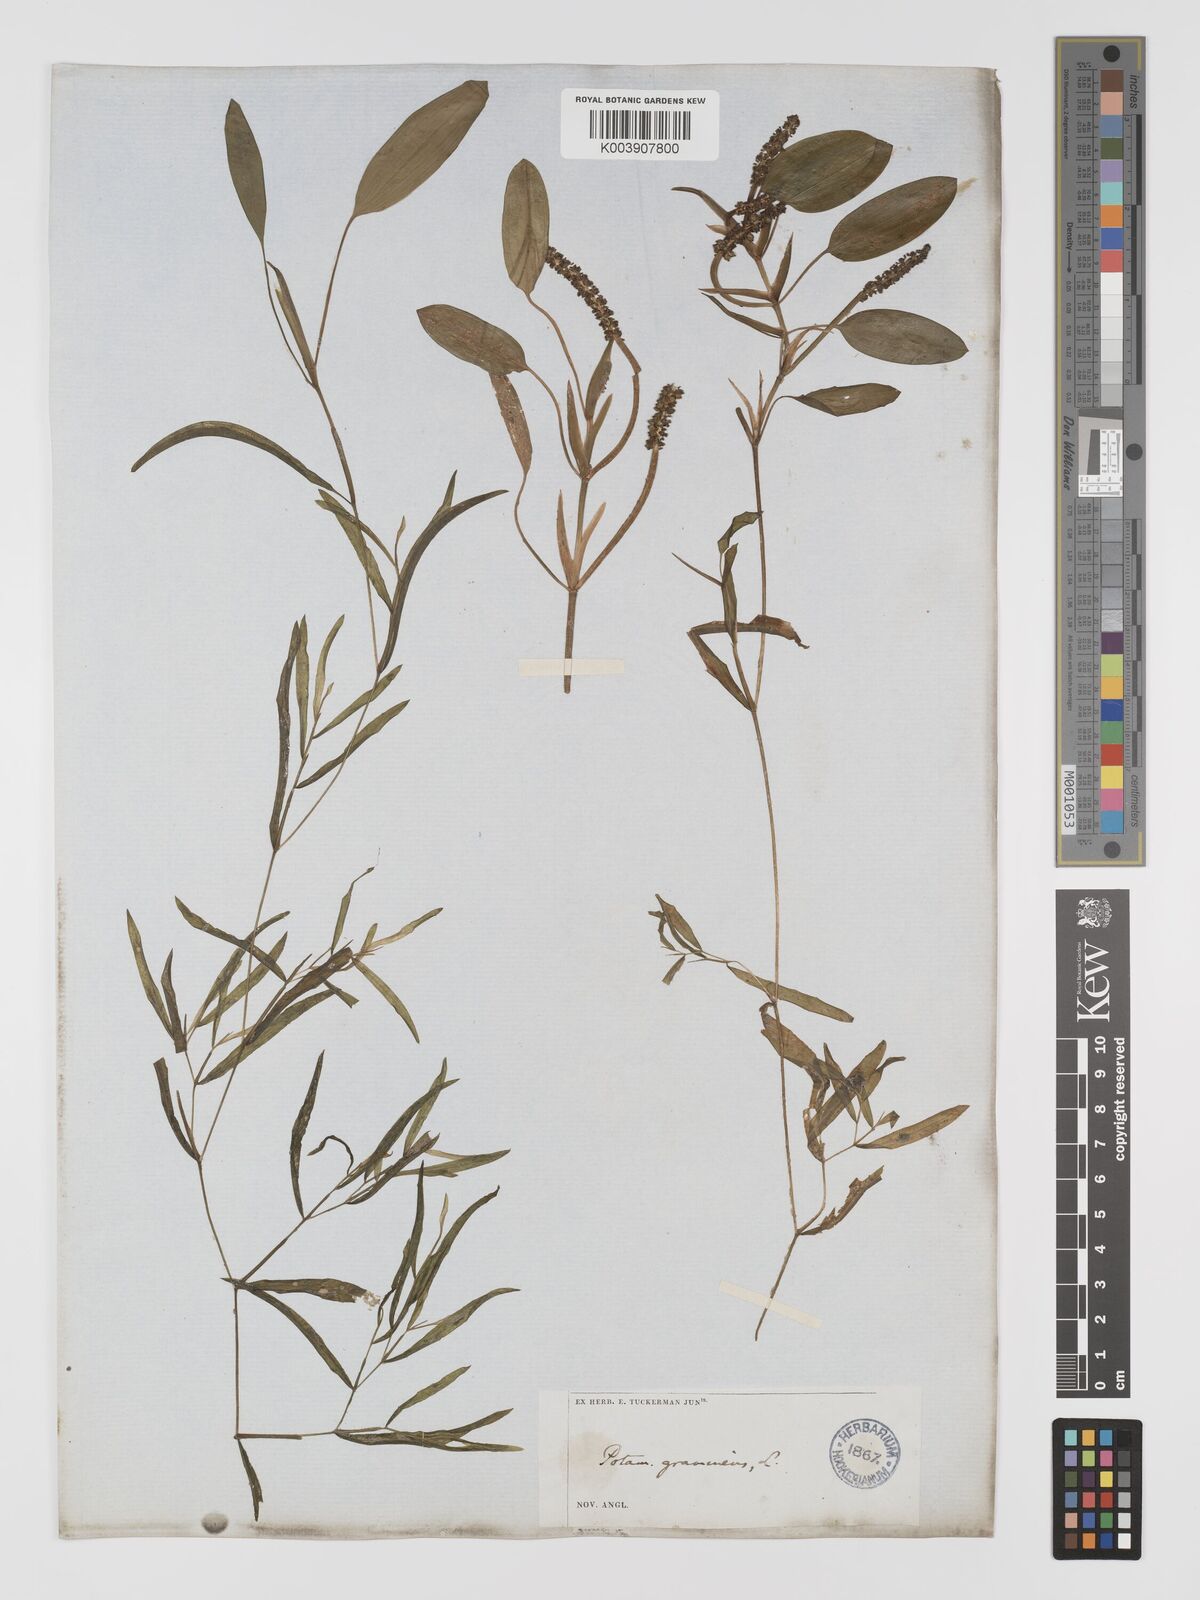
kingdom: Plantae
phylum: Tracheophyta
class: Liliopsida
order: Alismatales
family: Potamogetonaceae
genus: Potamogeton
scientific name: Potamogeton gramineus
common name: Various-leaved pondweed
